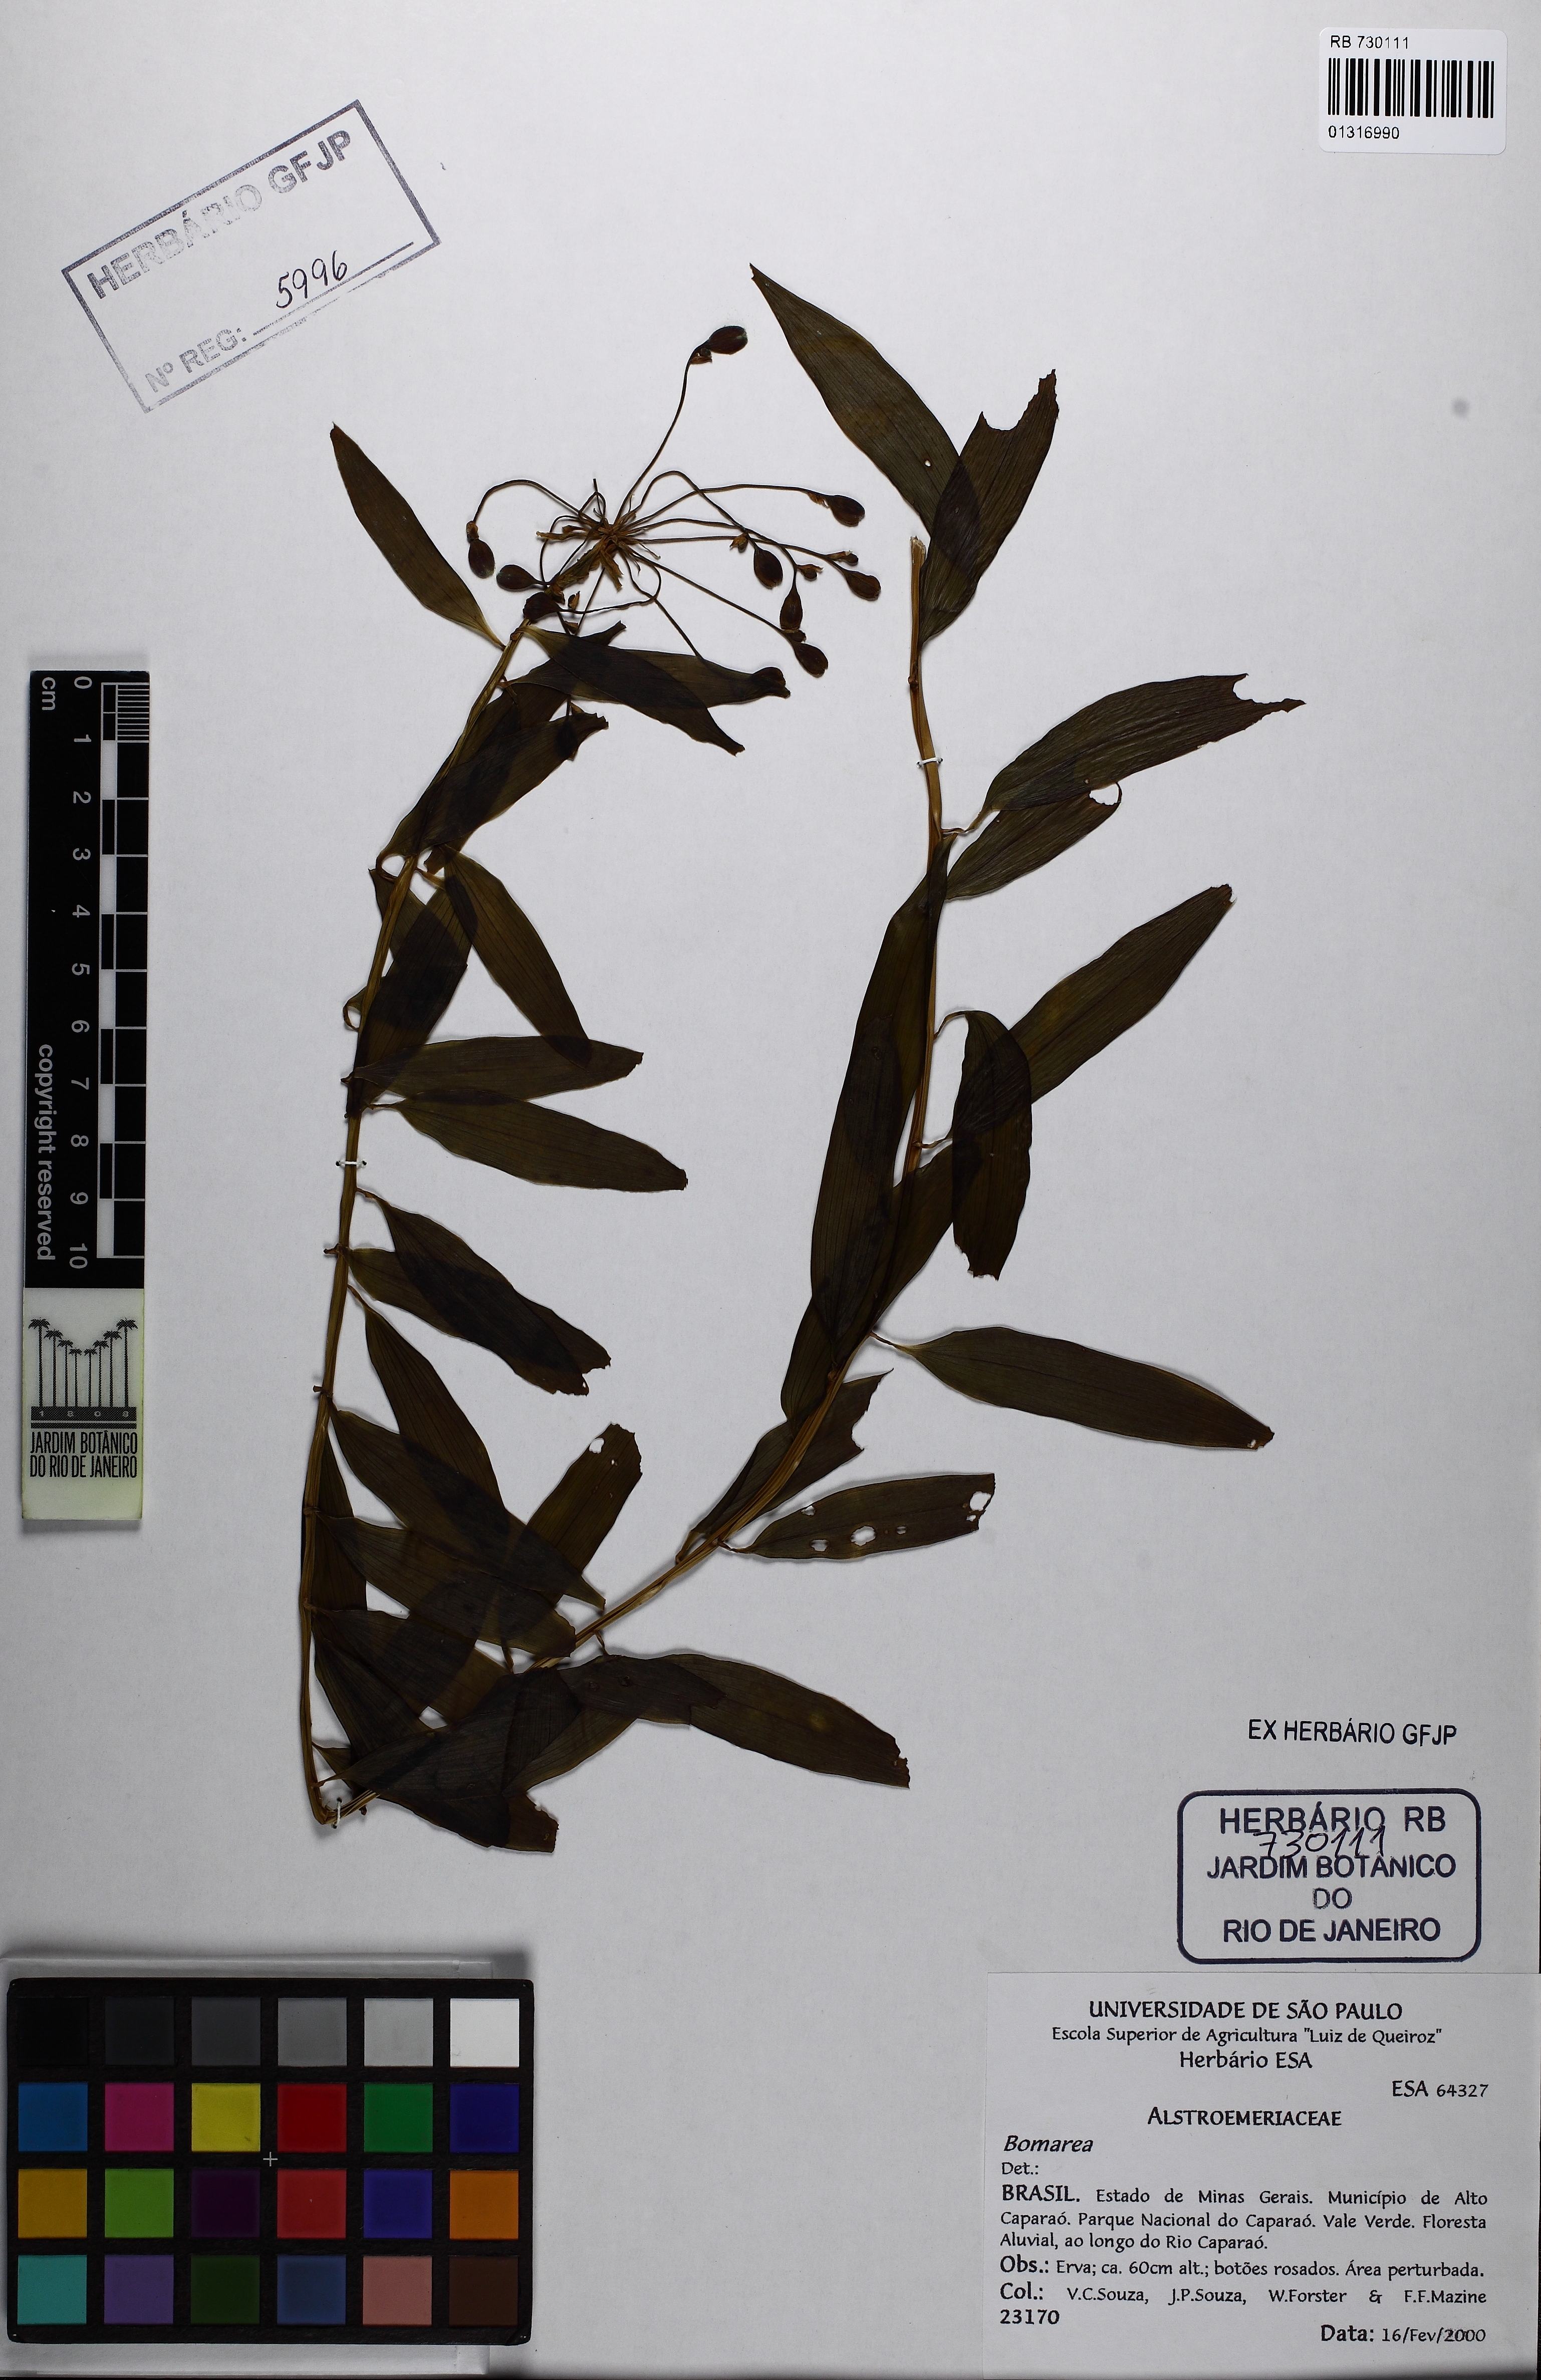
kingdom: Plantae
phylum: Tracheophyta
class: Liliopsida
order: Liliales
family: Alstroemeriaceae
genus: Bomarea
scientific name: Bomarea
